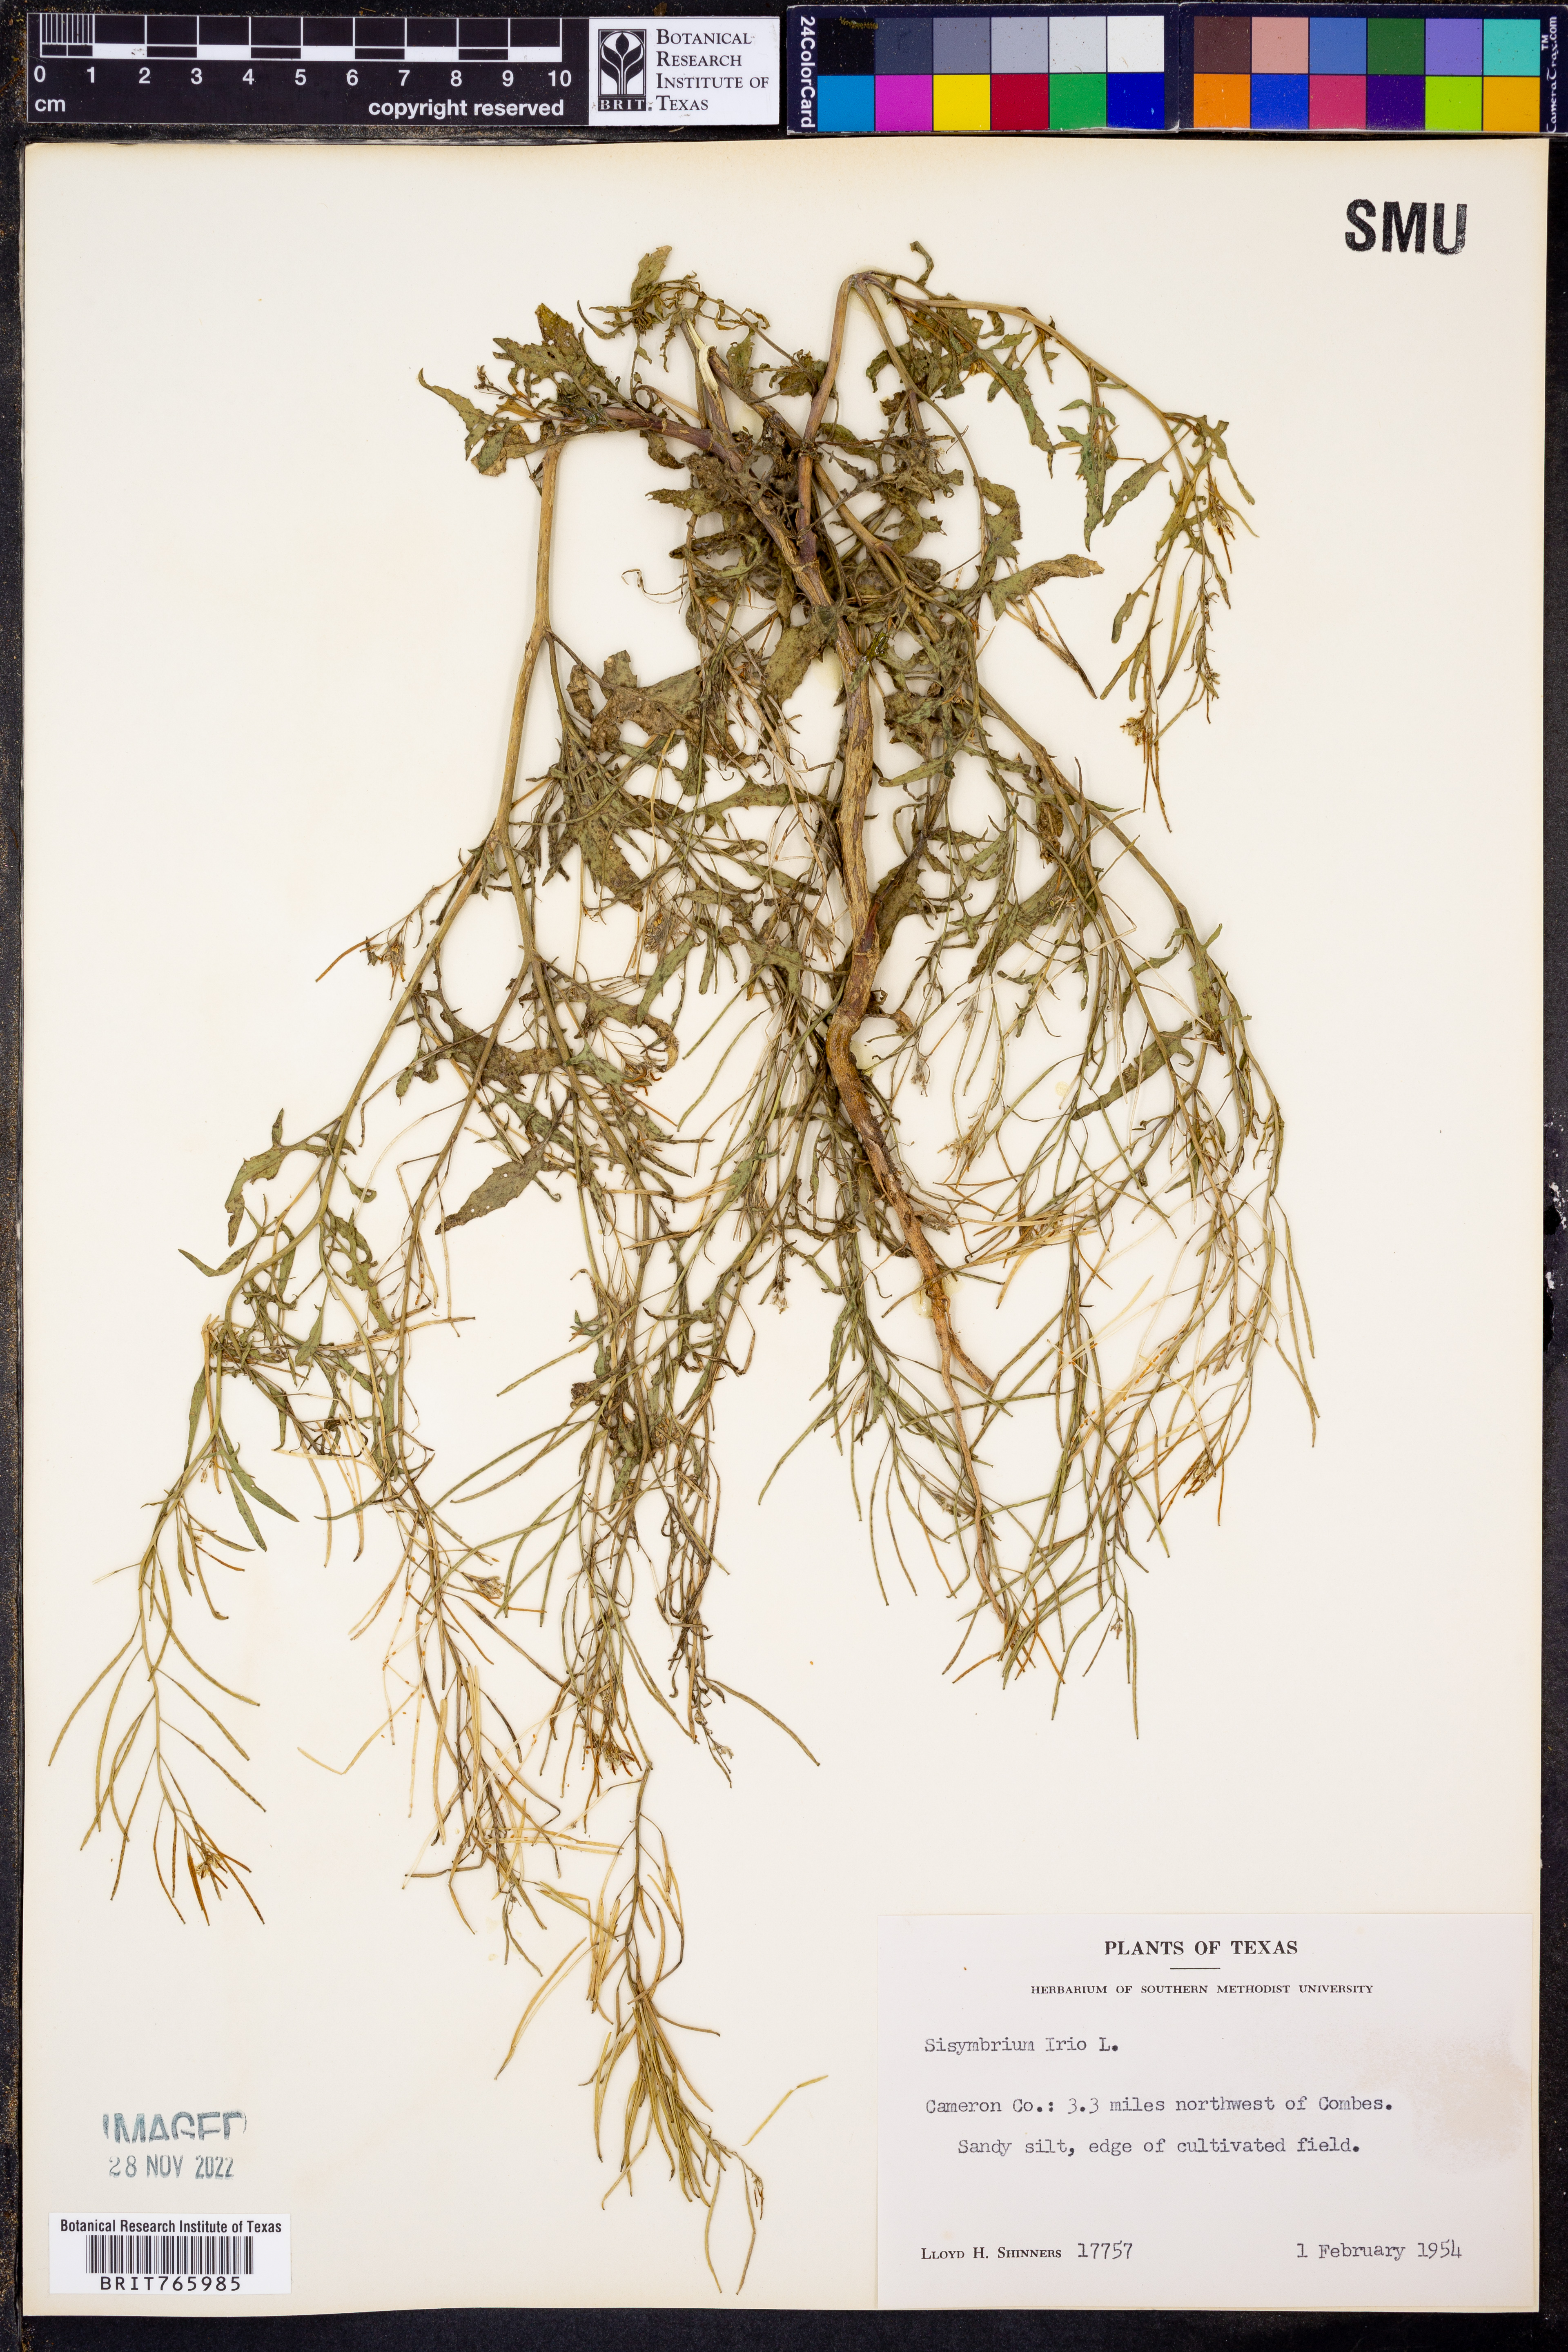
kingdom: Plantae
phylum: Tracheophyta
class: Magnoliopsida
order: Brassicales
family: Brassicaceae
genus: Sisymbrium
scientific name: Sisymbrium irio
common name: London rocket
